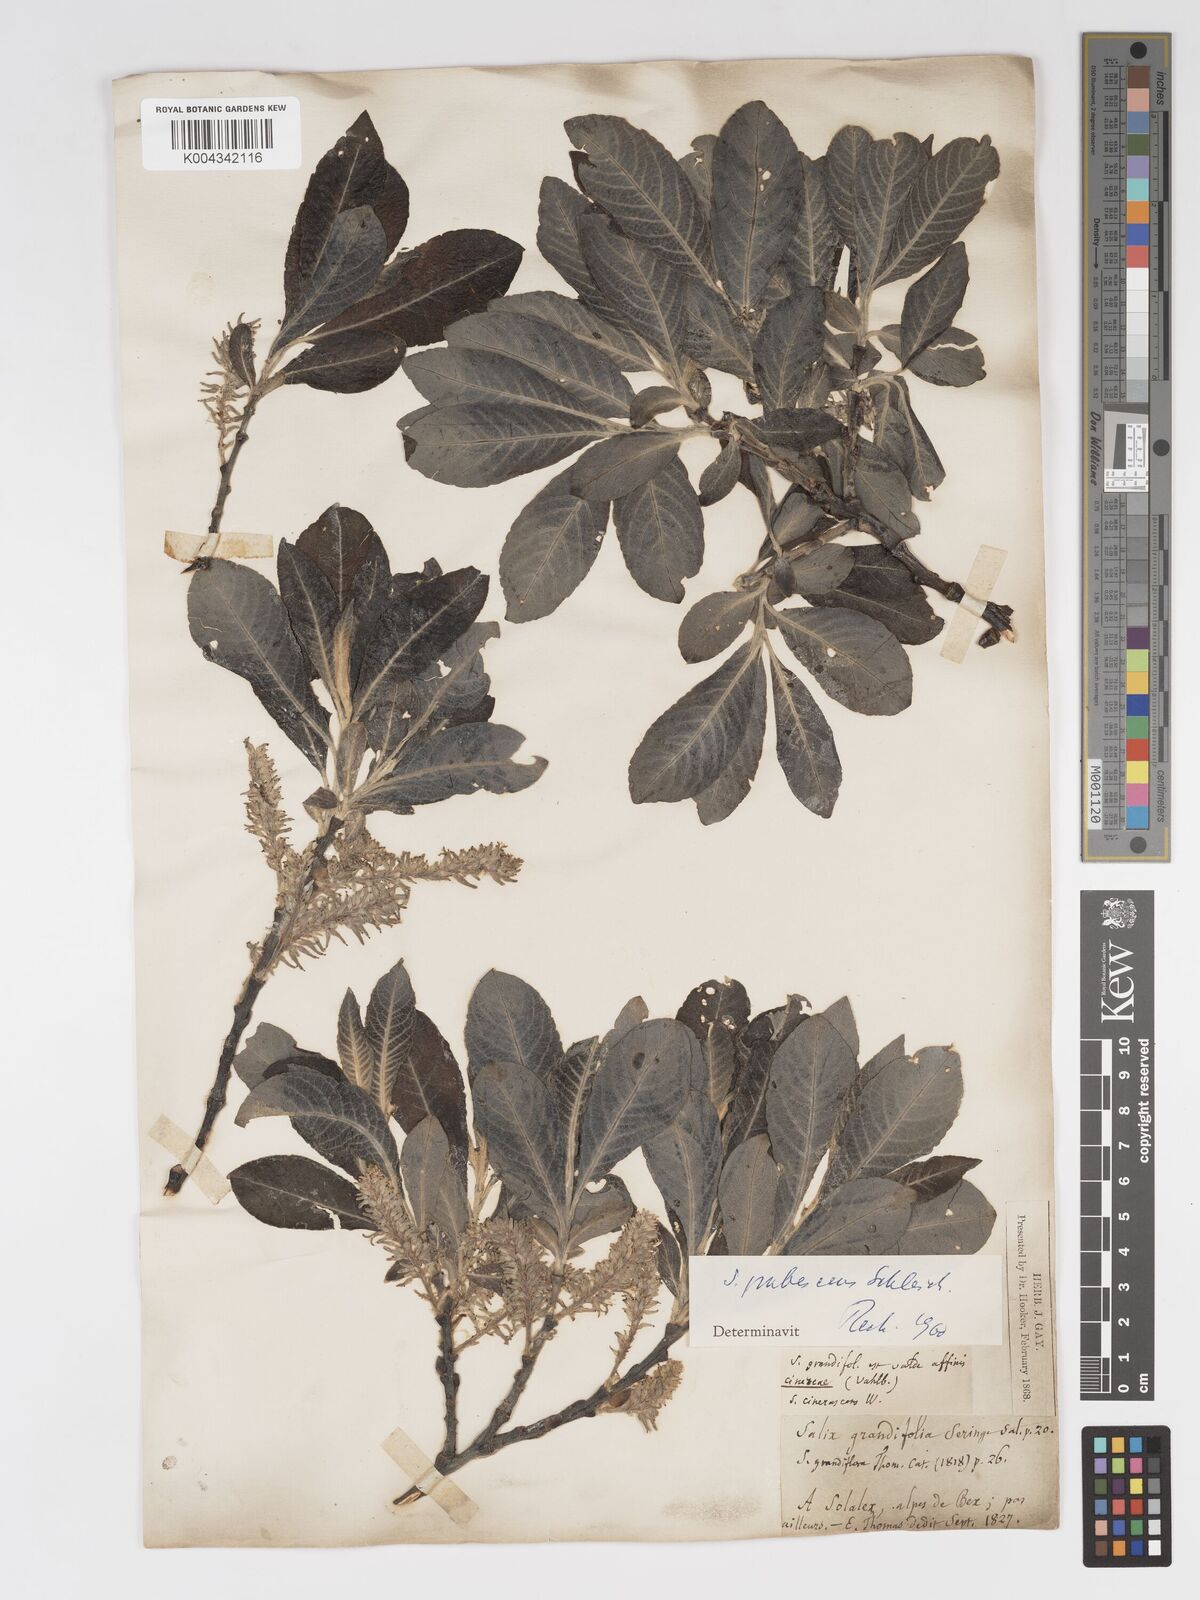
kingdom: Plantae
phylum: Tracheophyta
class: Magnoliopsida
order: Malpighiales
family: Salicaceae
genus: Salix
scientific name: Salix laggeri
